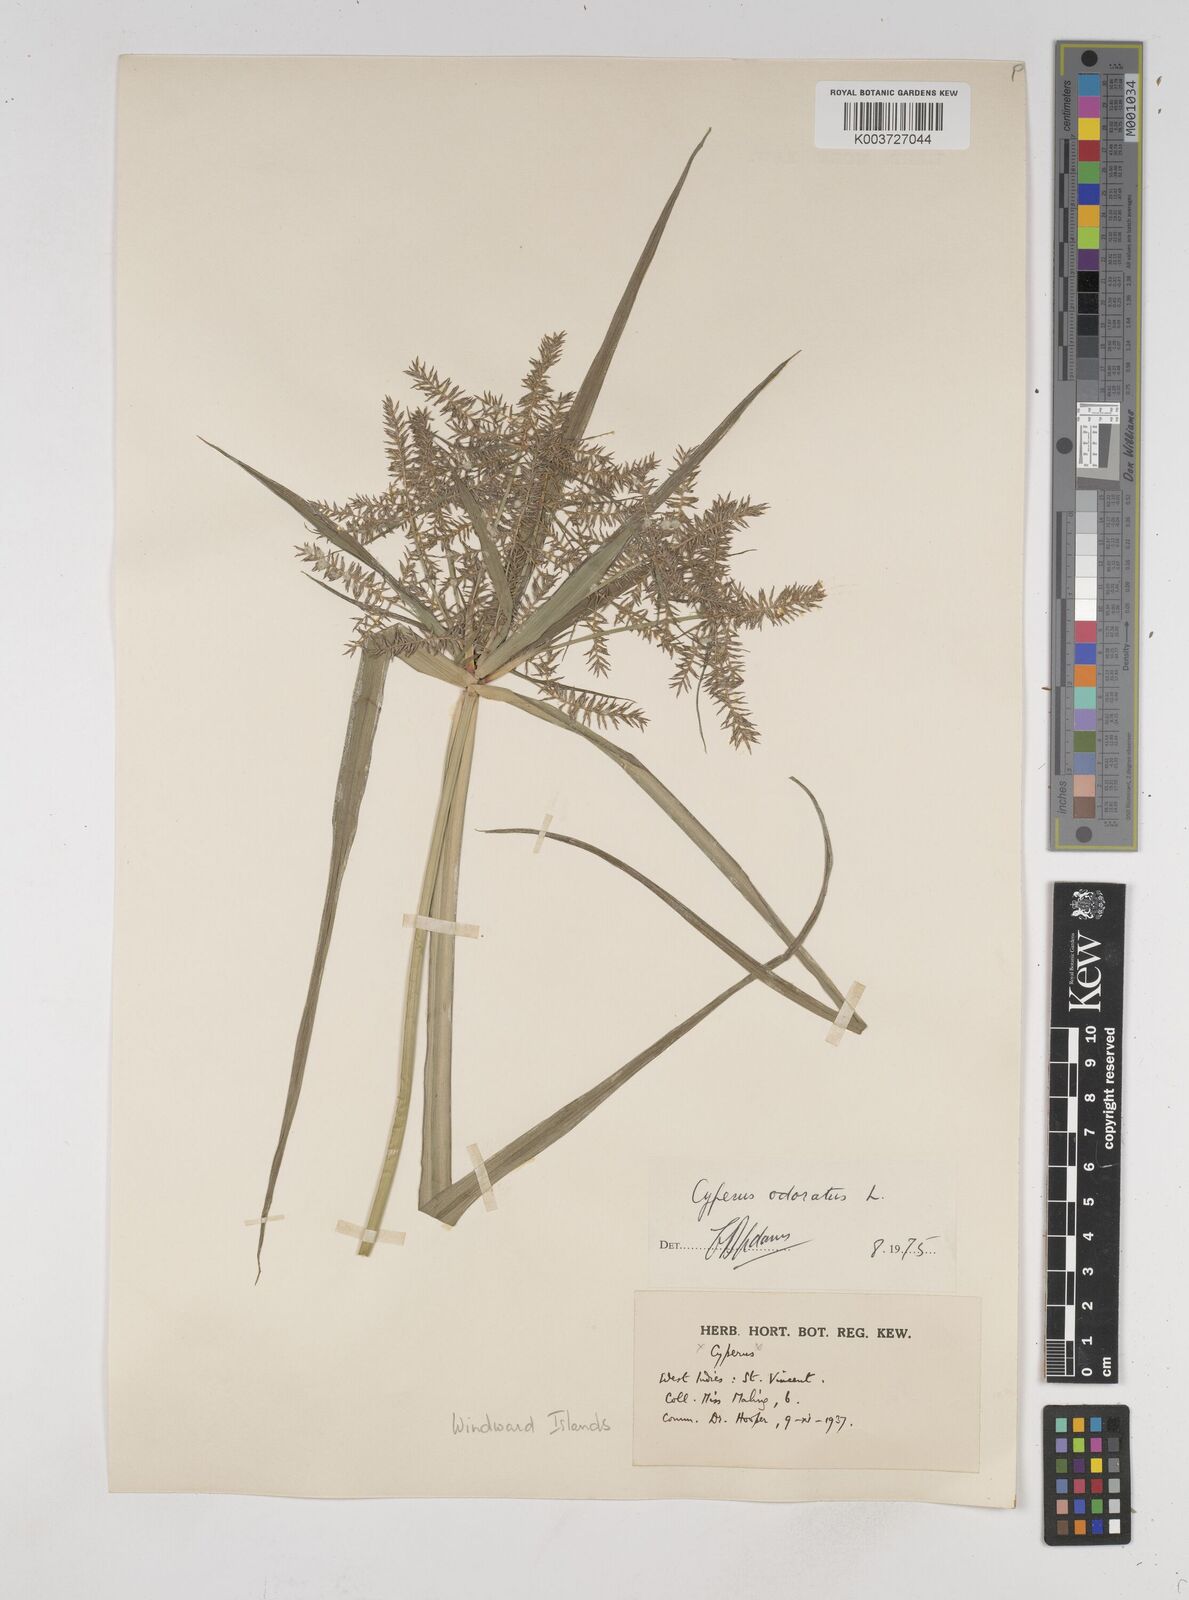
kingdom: Plantae
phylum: Tracheophyta
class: Liliopsida
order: Poales
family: Cyperaceae
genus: Cyperus
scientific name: Cyperus odoratus
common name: Fragrant flatsedge
